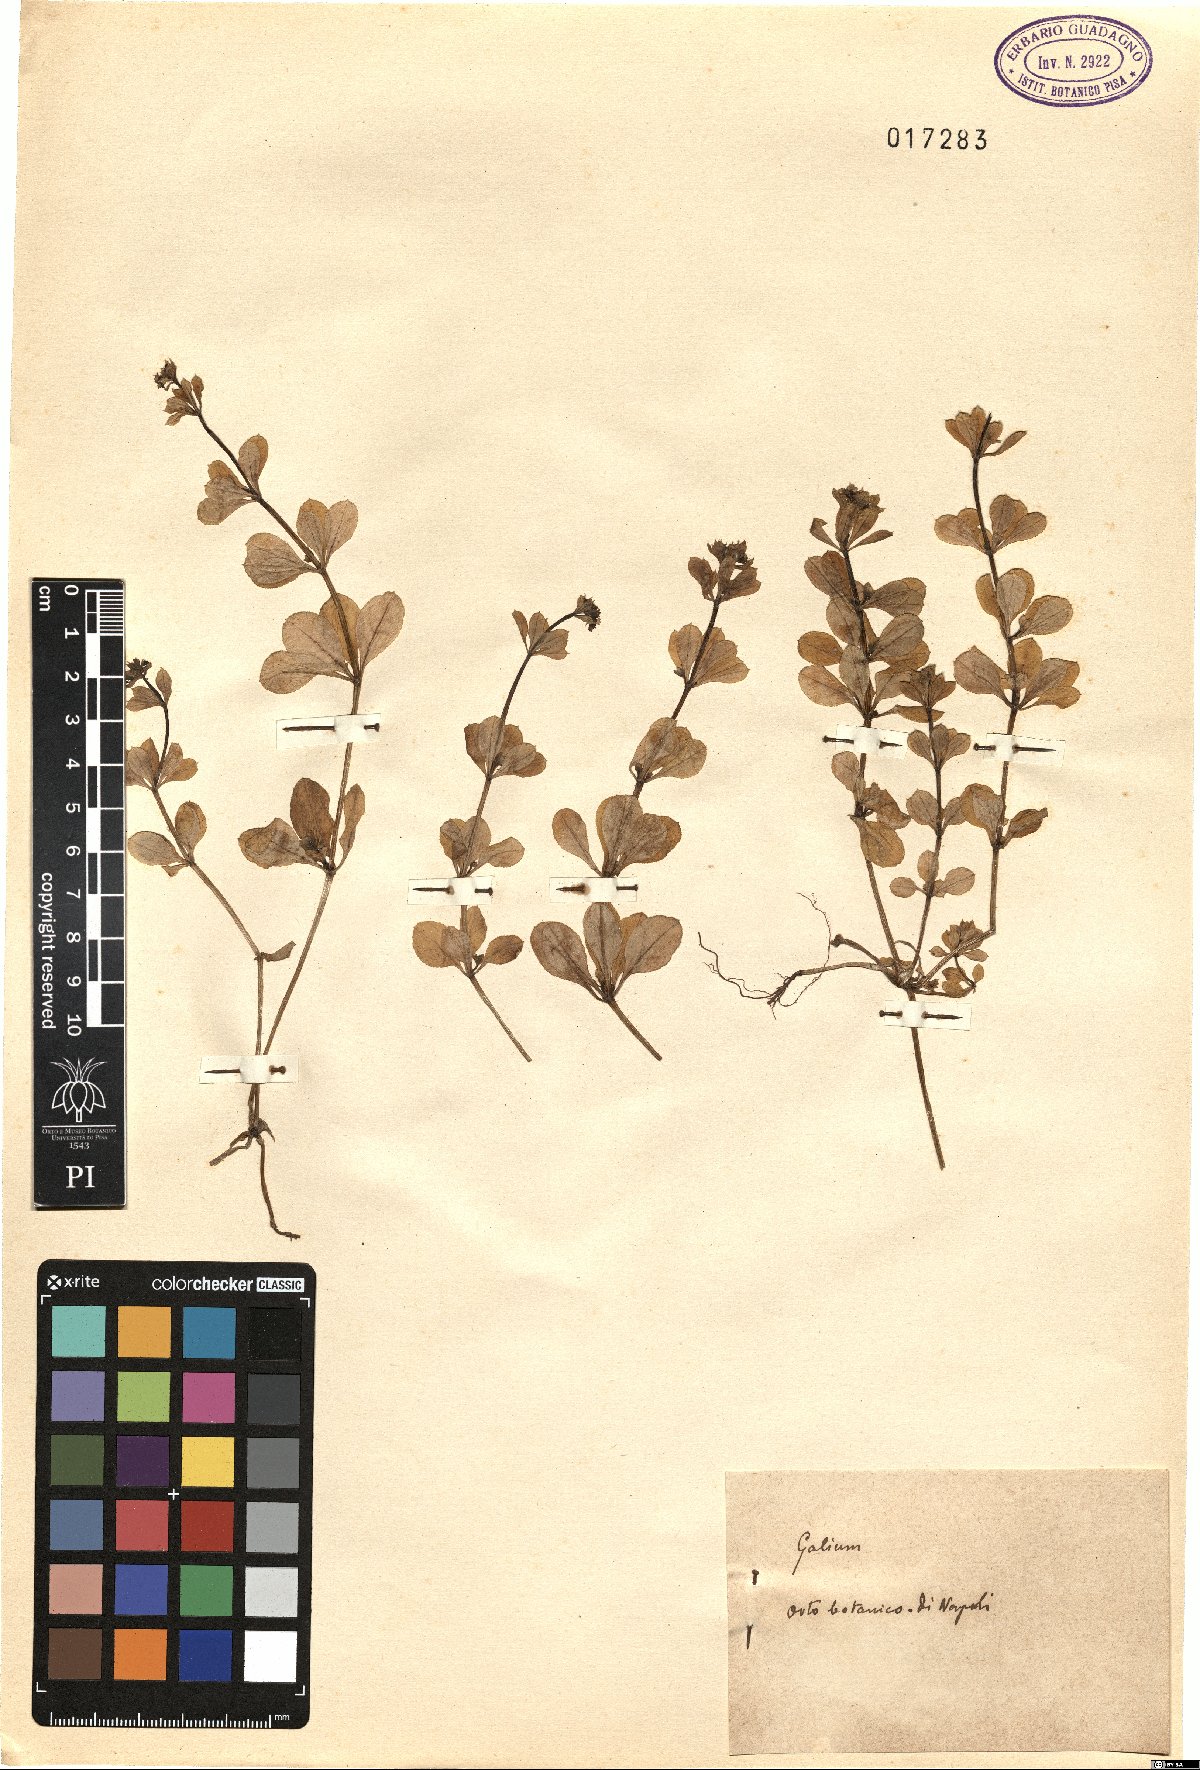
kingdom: Plantae
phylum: Tracheophyta
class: Magnoliopsida
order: Gentianales
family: Rubiaceae
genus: Galium
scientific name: Galium
